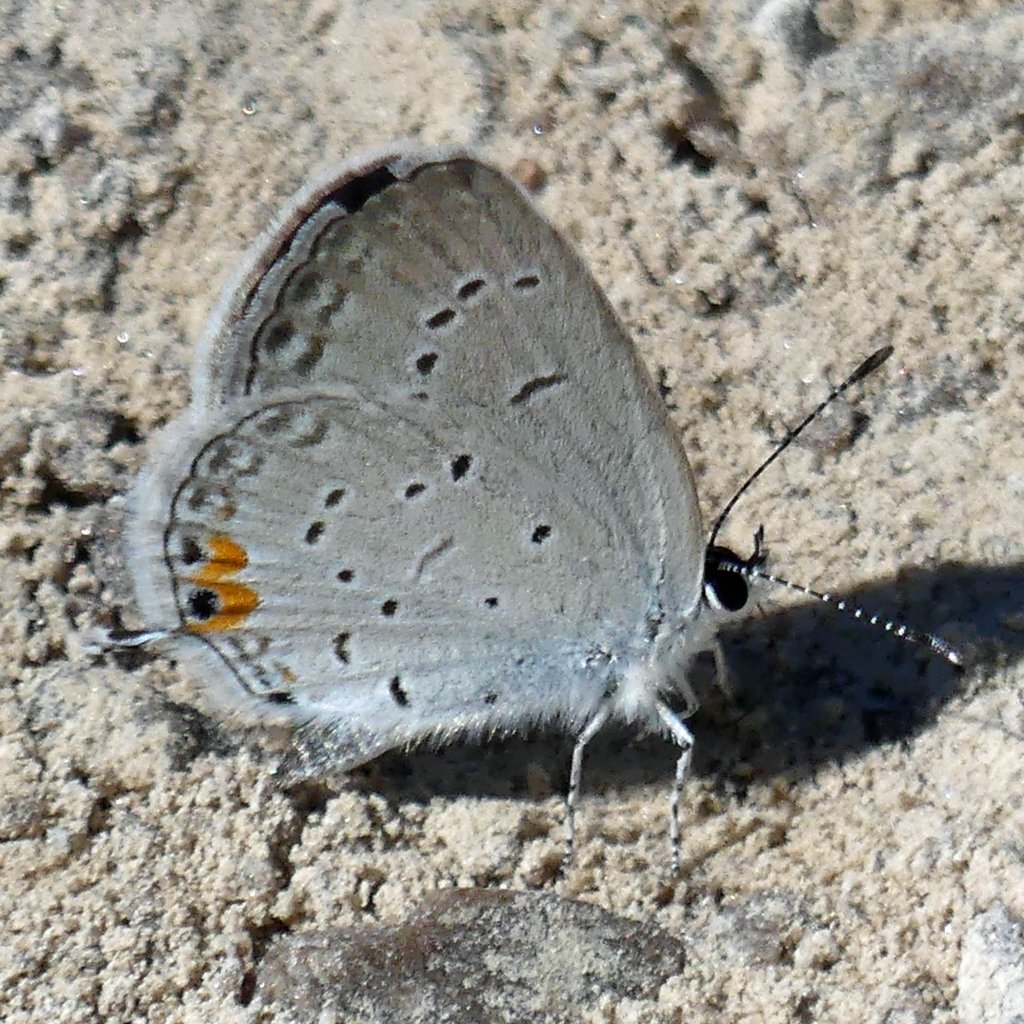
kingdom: Animalia
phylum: Arthropoda
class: Insecta
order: Lepidoptera
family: Lycaenidae
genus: Elkalyce
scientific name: Elkalyce comyntas
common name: Eastern Tailed-Blue
